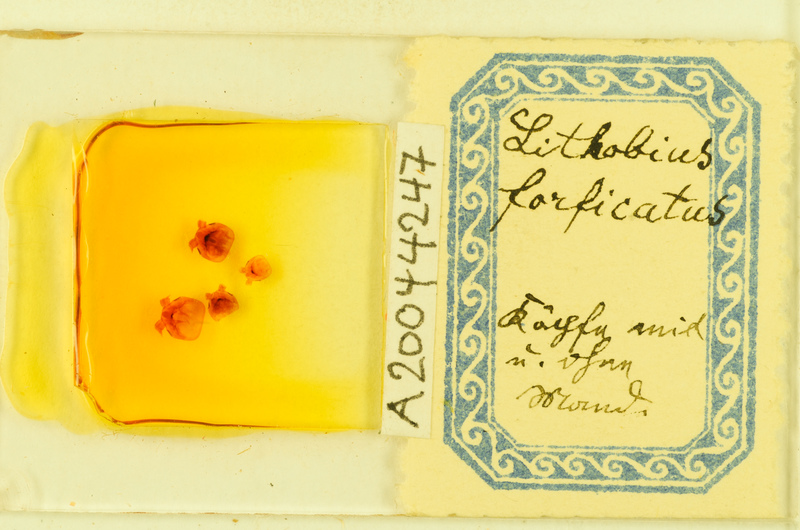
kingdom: Animalia
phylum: Arthropoda
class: Chilopoda
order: Lithobiomorpha
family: Lithobiidae
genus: Lithobius
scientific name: Lithobius forficatus
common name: Centipede
